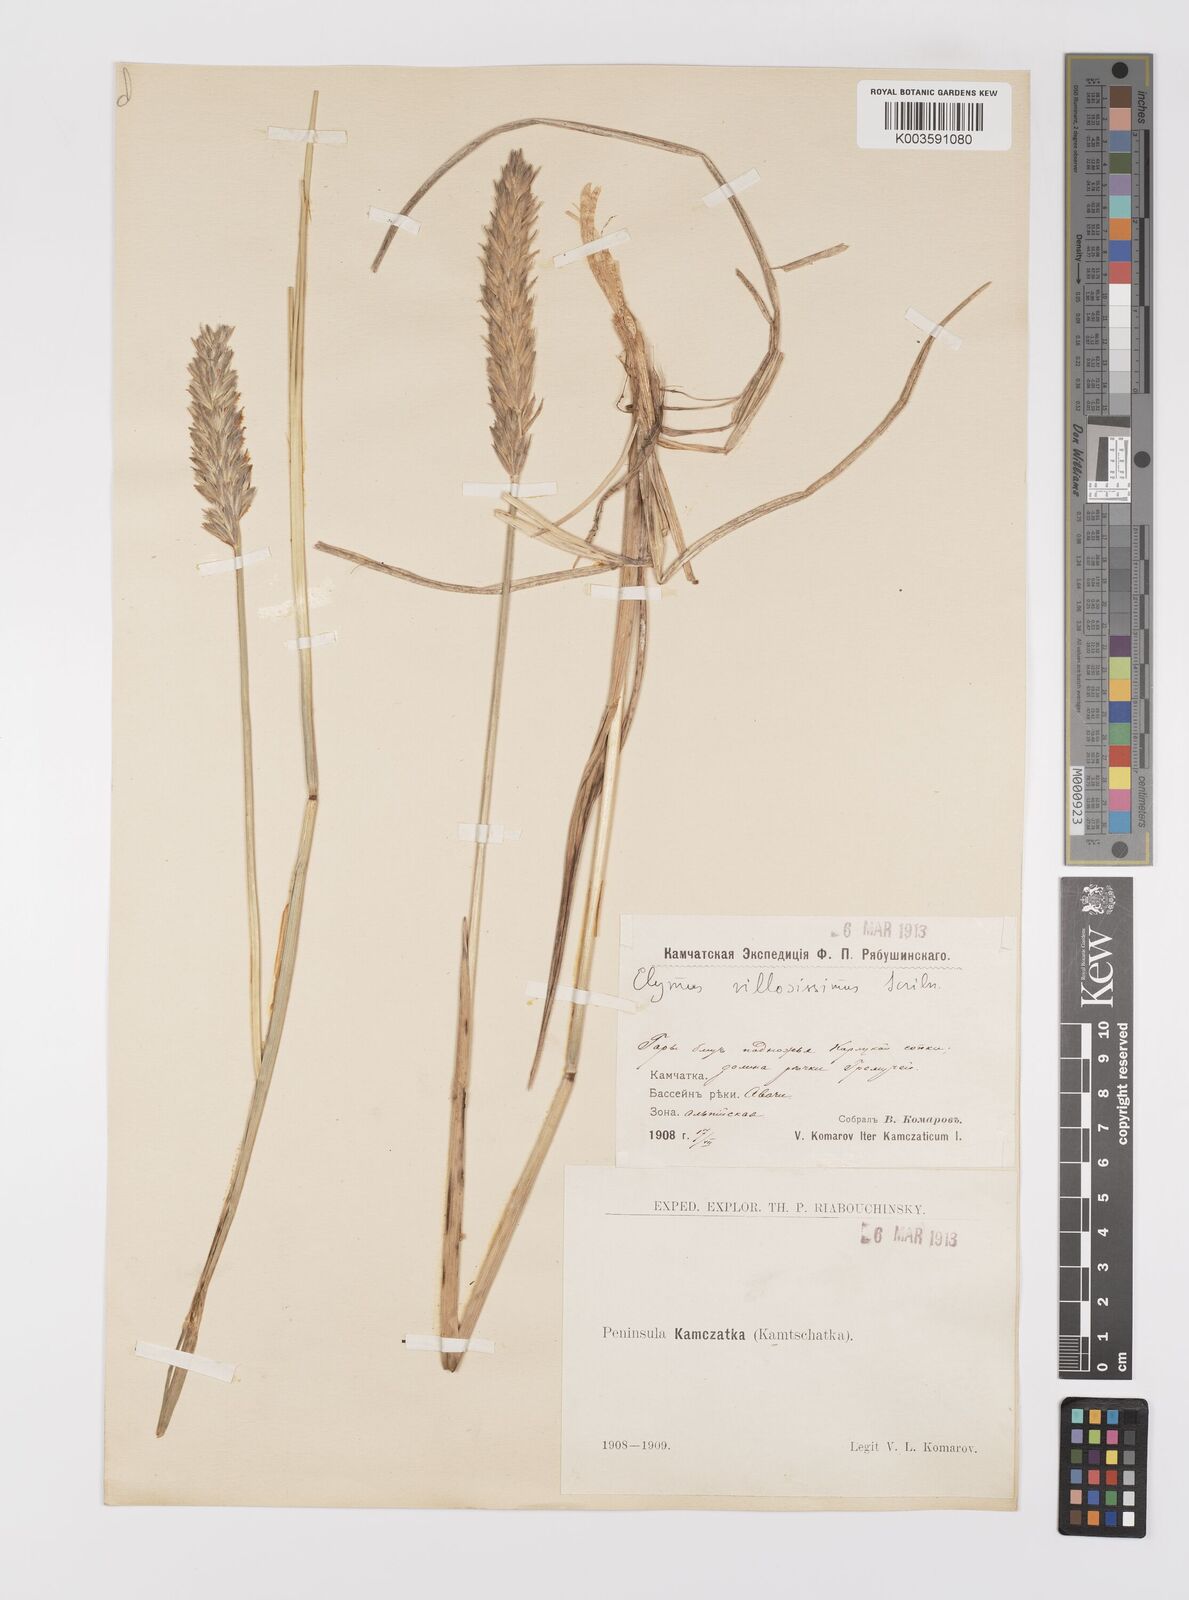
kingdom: Plantae
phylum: Tracheophyta
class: Liliopsida
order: Poales
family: Poaceae
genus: Leymus
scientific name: Leymus mollis
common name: American dune grass
